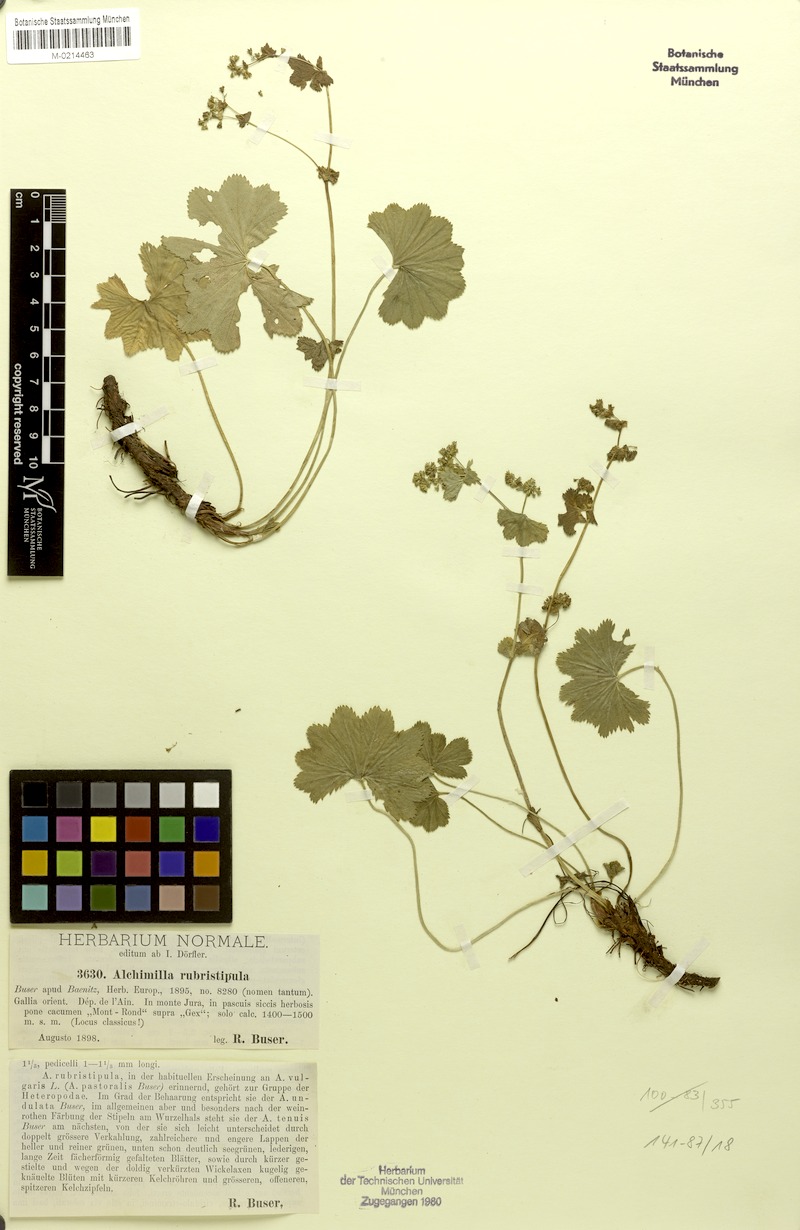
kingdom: Plantae
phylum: Tracheophyta
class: Magnoliopsida
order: Rosales
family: Rosaceae
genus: Alchemilla
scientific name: Alchemilla rubristipula
